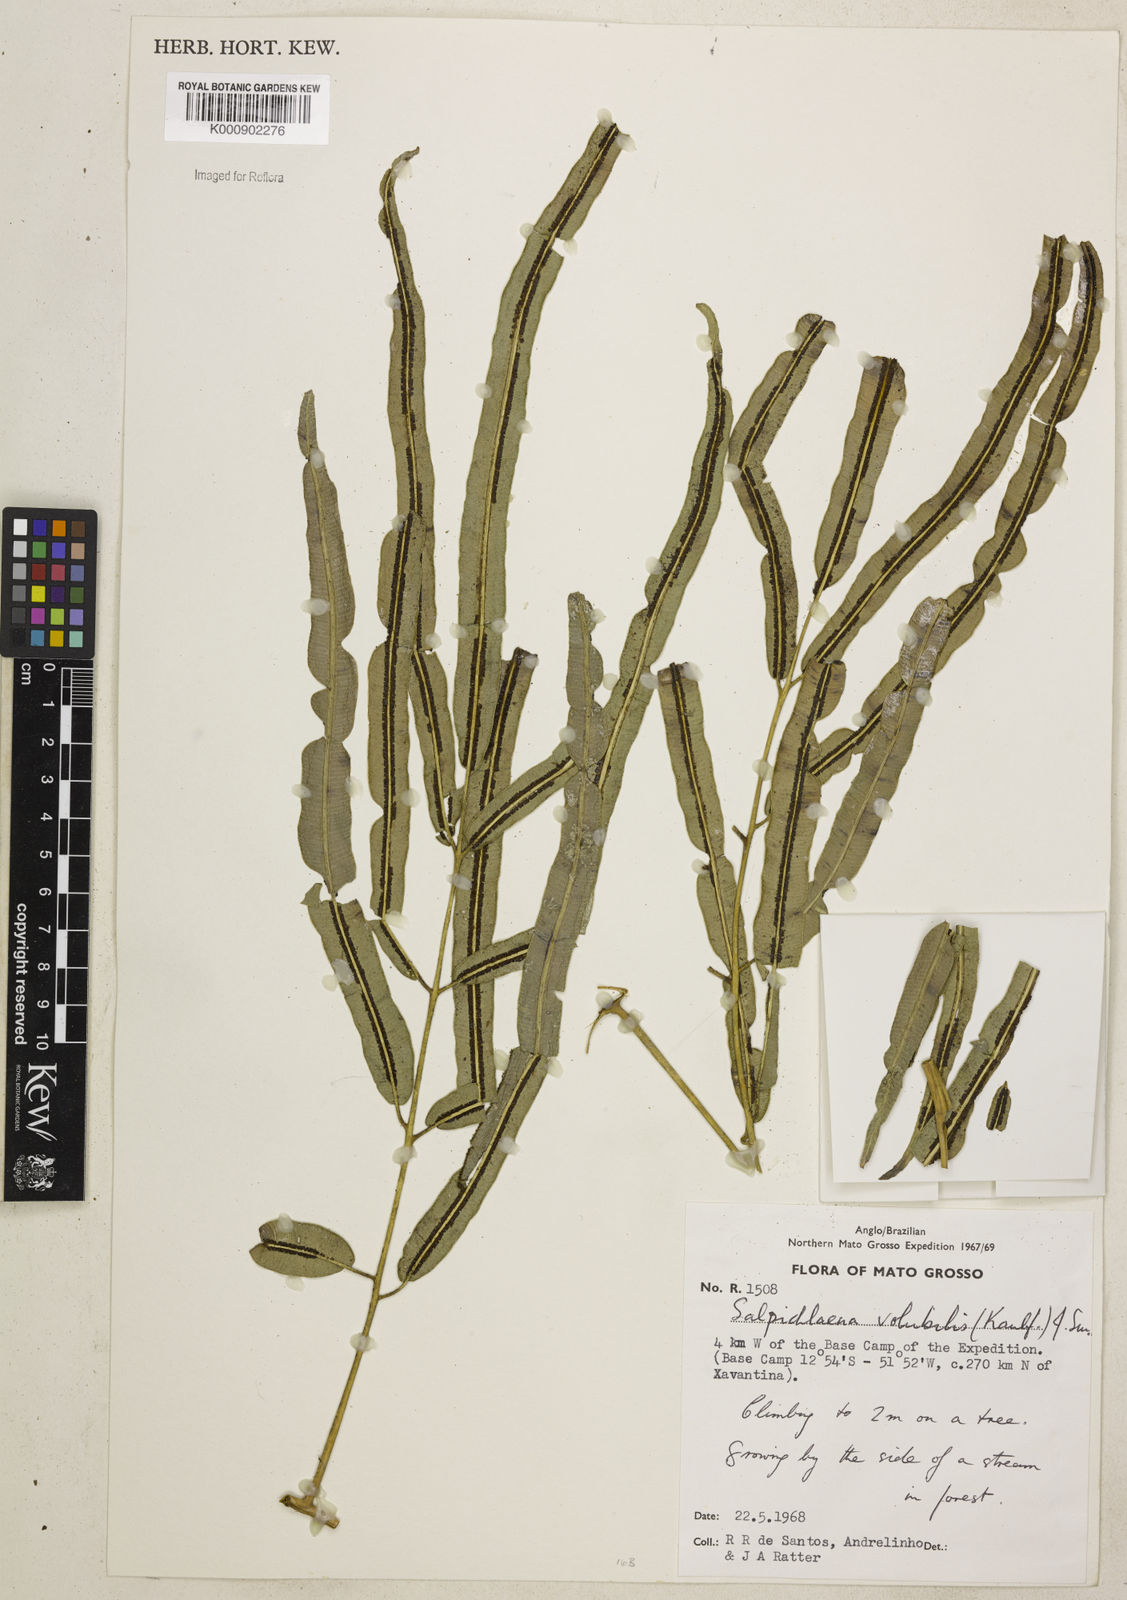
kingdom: Plantae
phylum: Tracheophyta
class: Polypodiopsida
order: Polypodiales
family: Blechnaceae
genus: Salpichlaena
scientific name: Salpichlaena volubilis
